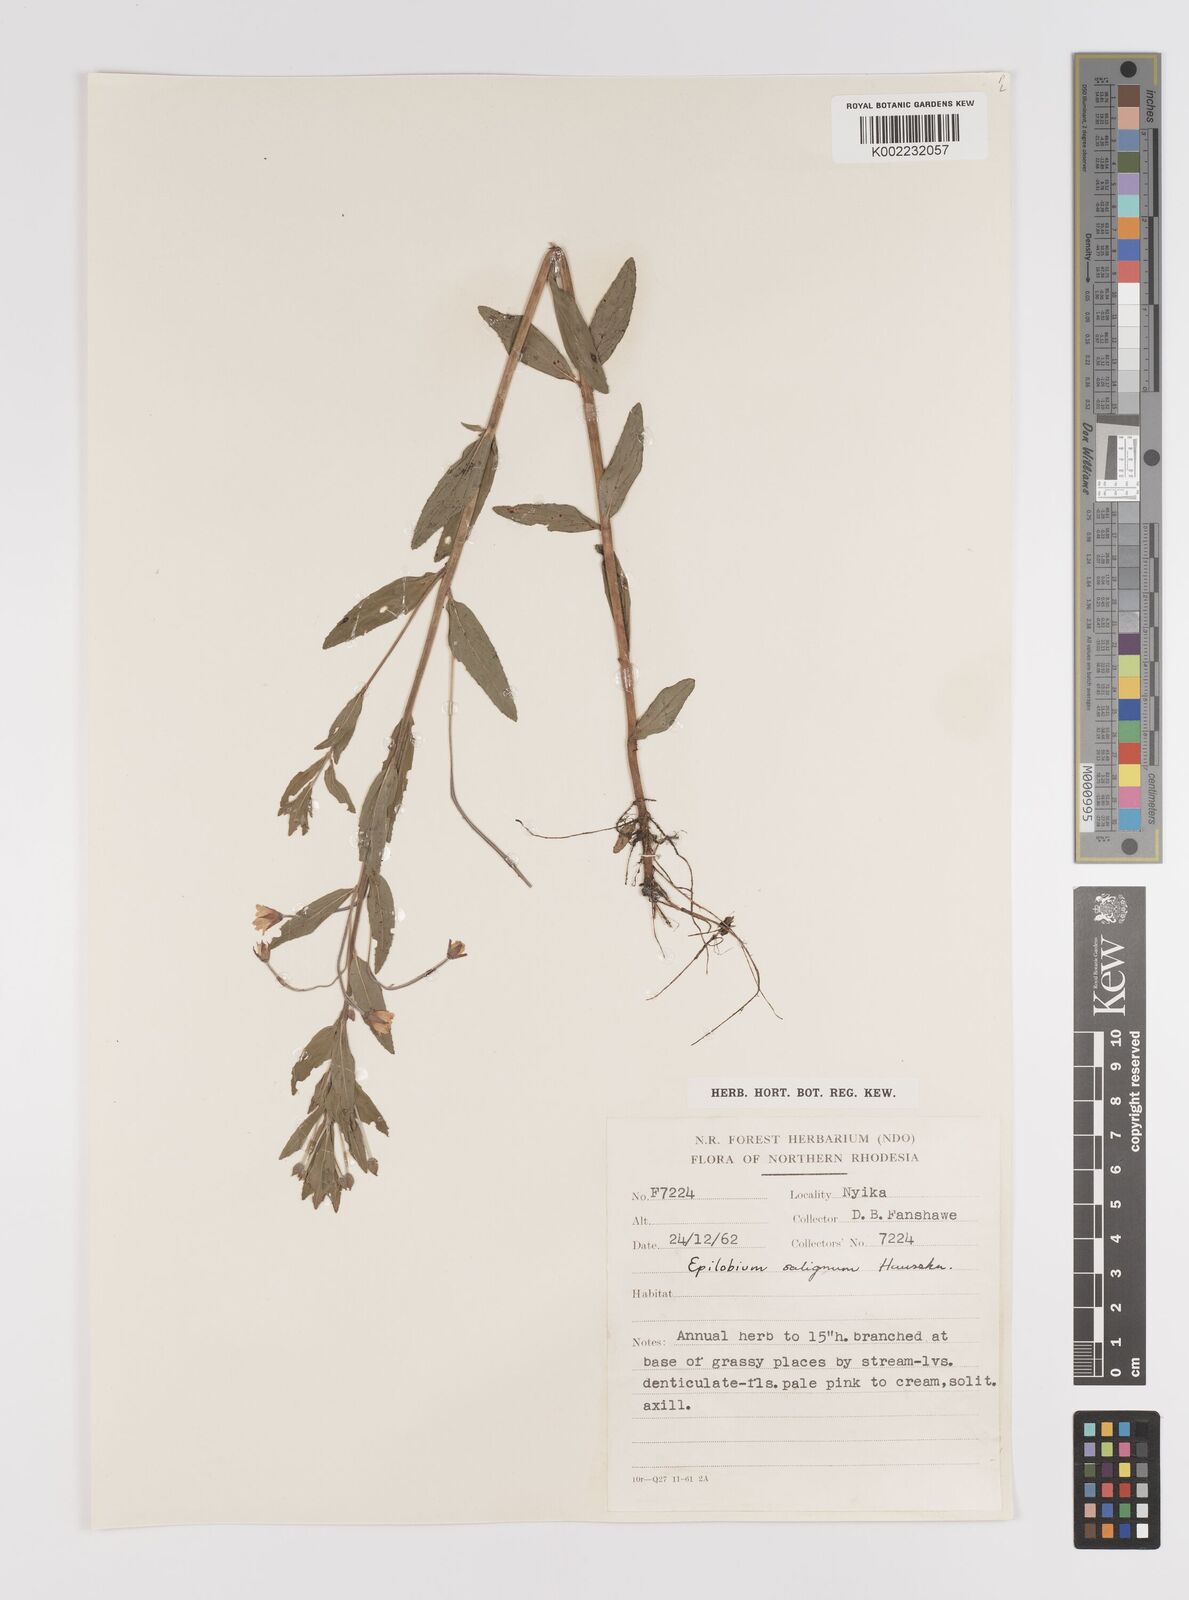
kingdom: Plantae
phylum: Tracheophyta
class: Magnoliopsida
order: Myrtales
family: Onagraceae
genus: Epilobium
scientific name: Epilobium salignum
